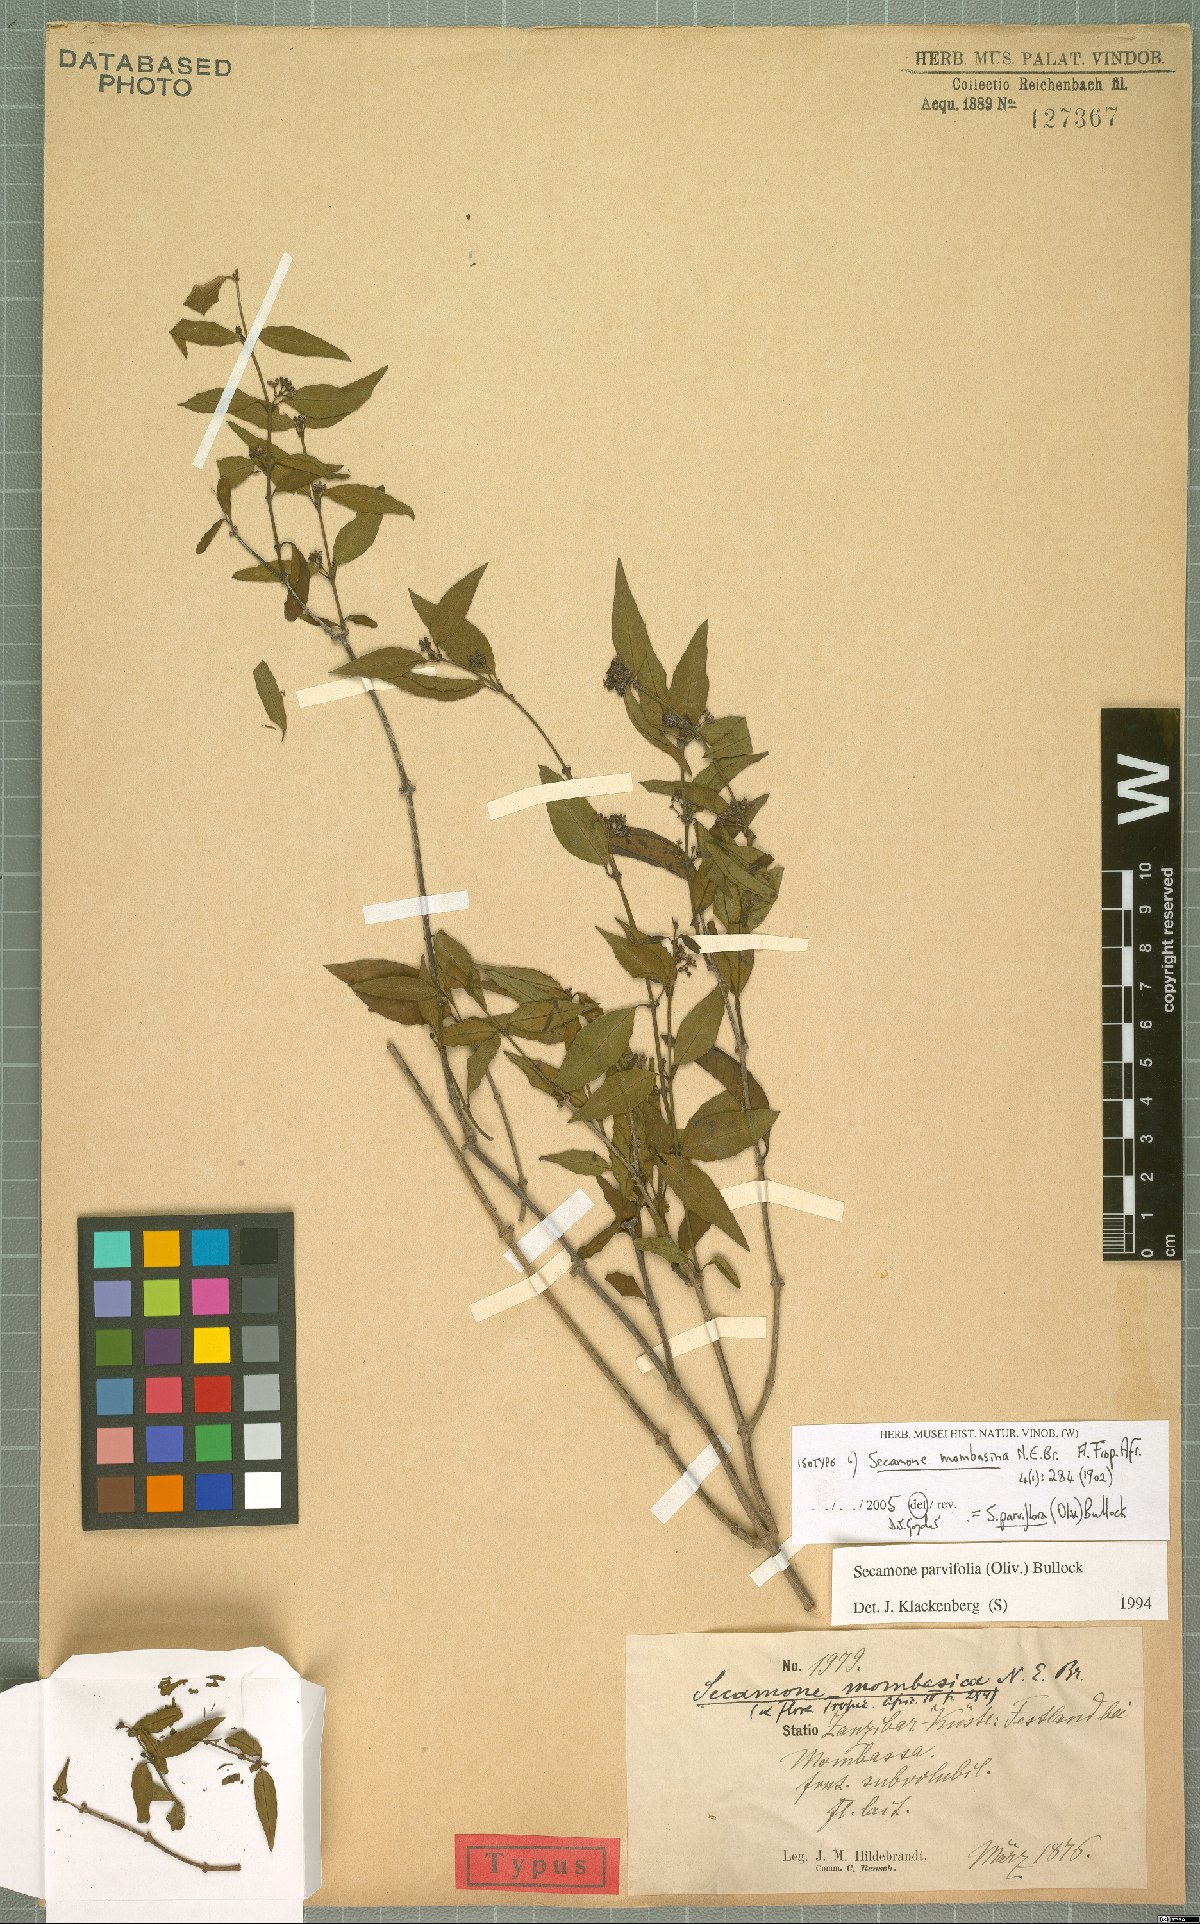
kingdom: Plantae
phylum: Tracheophyta
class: Magnoliopsida
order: Gentianales
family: Apocynaceae
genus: Secamone
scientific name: Secamone schweinfurthii
